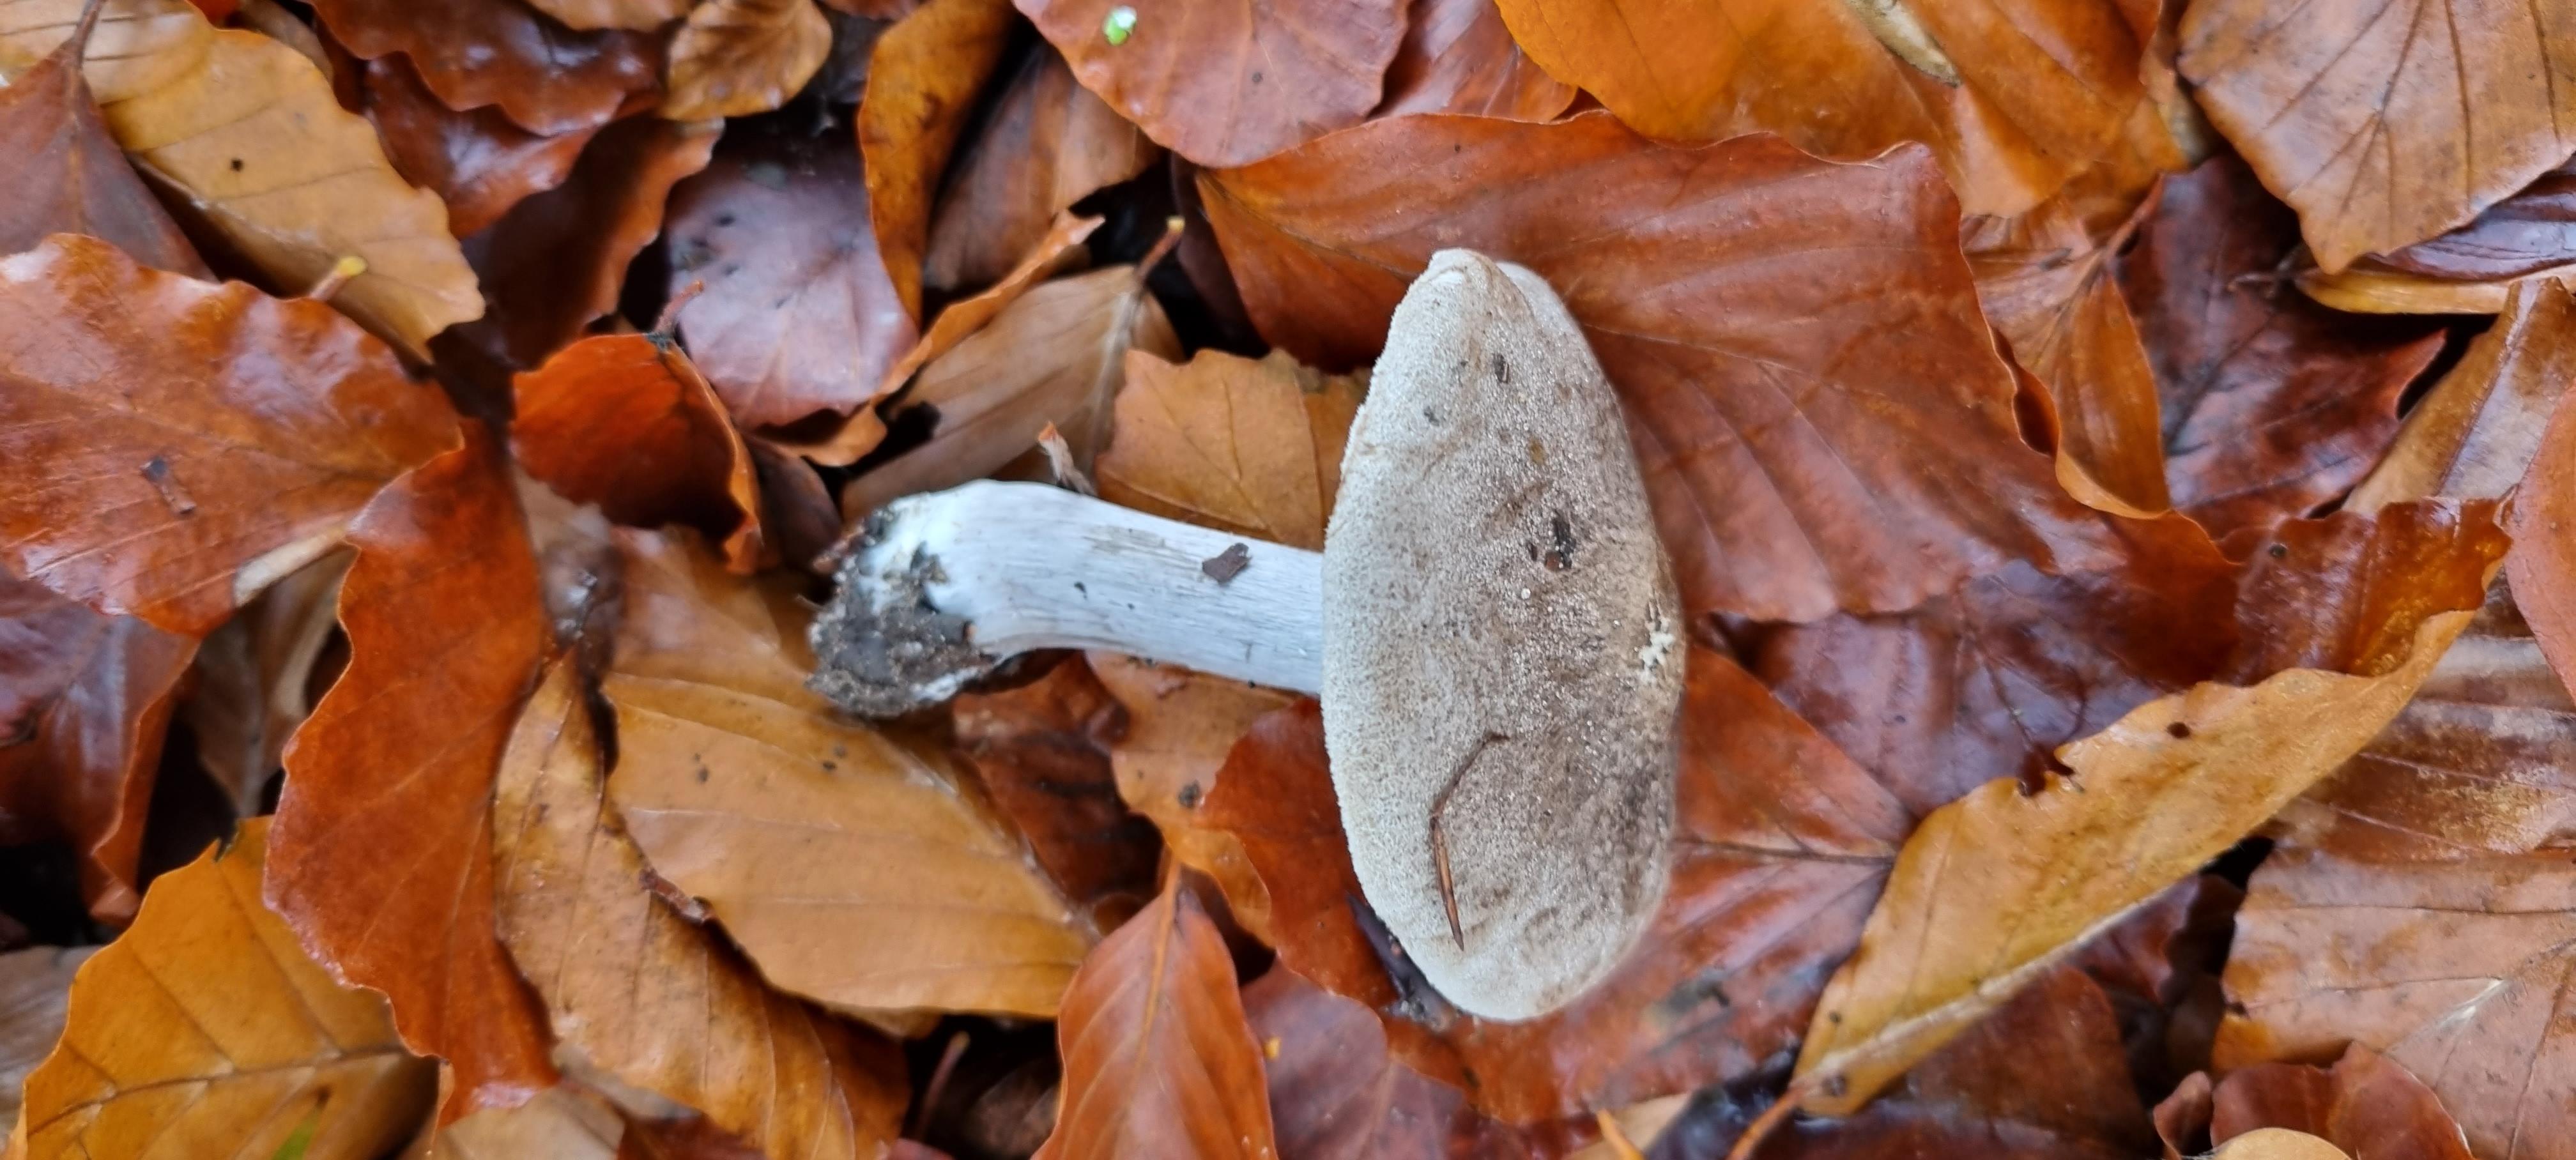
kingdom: Fungi
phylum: Basidiomycota
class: Agaricomycetes
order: Agaricales
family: Tricholomataceae
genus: Tricholoma
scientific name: Tricholoma scalpturatum
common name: gulplettet ridderhat
